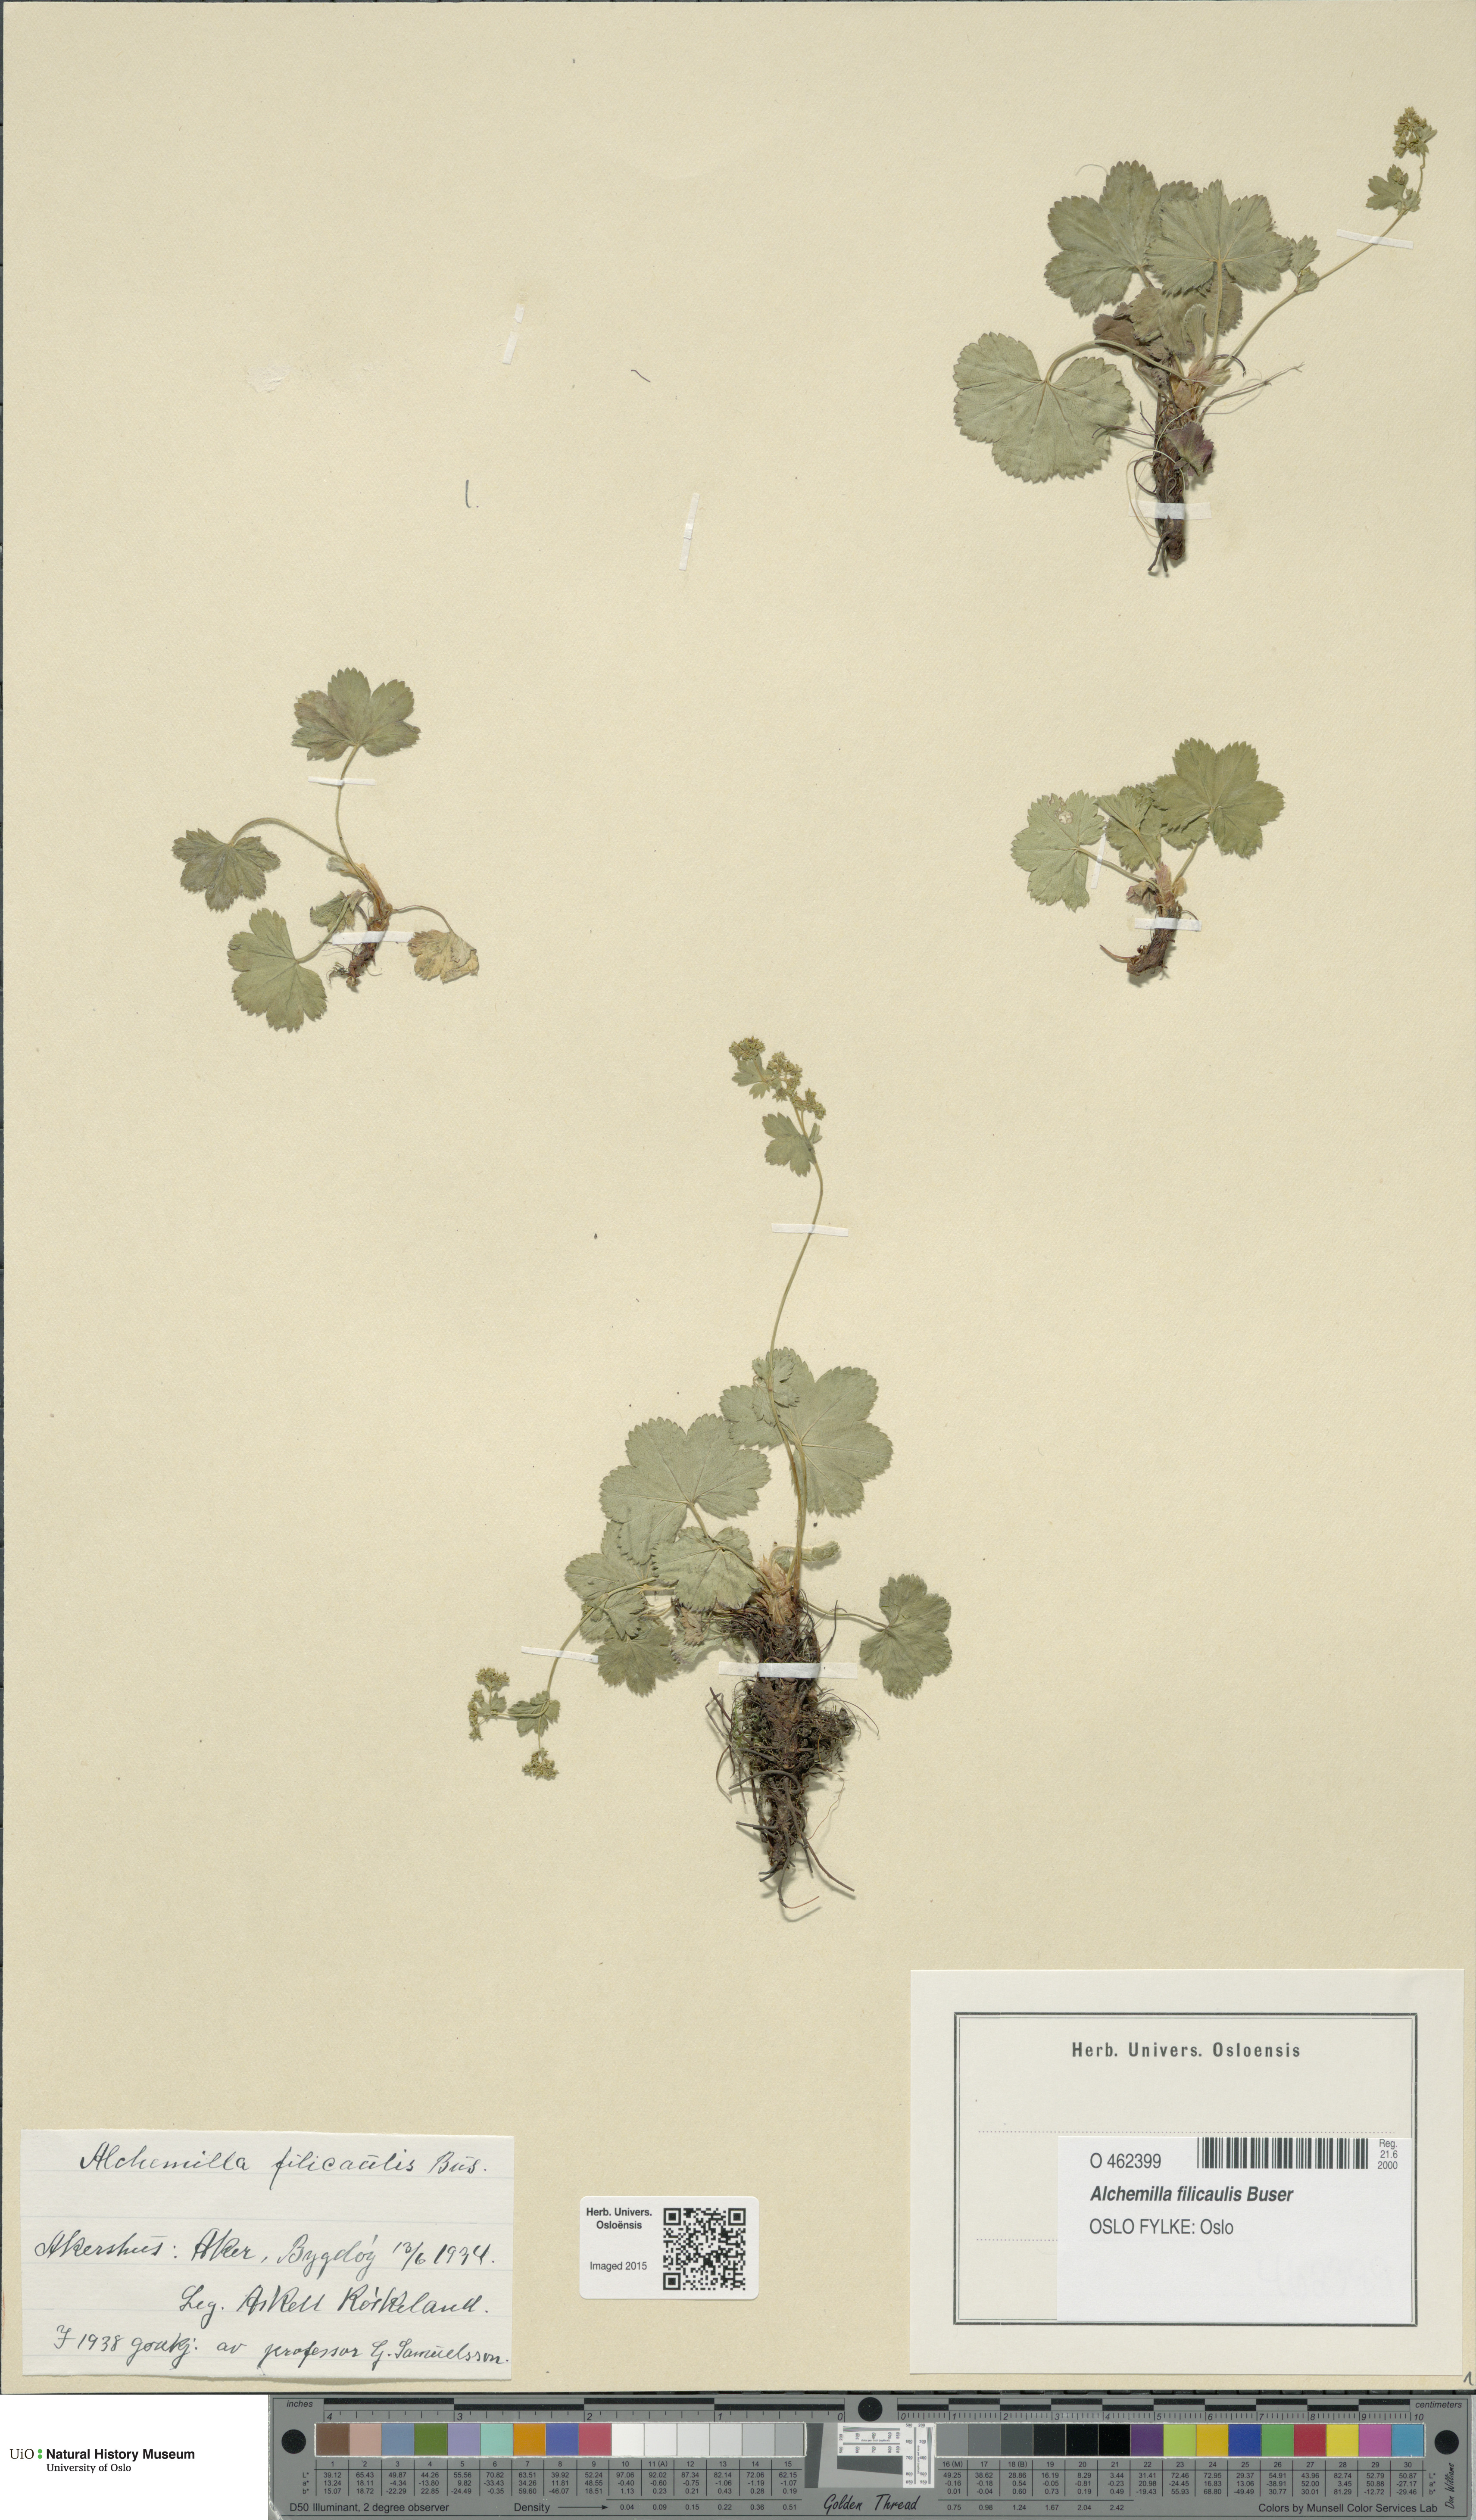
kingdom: Plantae
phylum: Tracheophyta
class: Magnoliopsida
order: Rosales
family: Rosaceae
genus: Alchemilla
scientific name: Alchemilla filicaulis
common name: Hairy lady's-mantle
